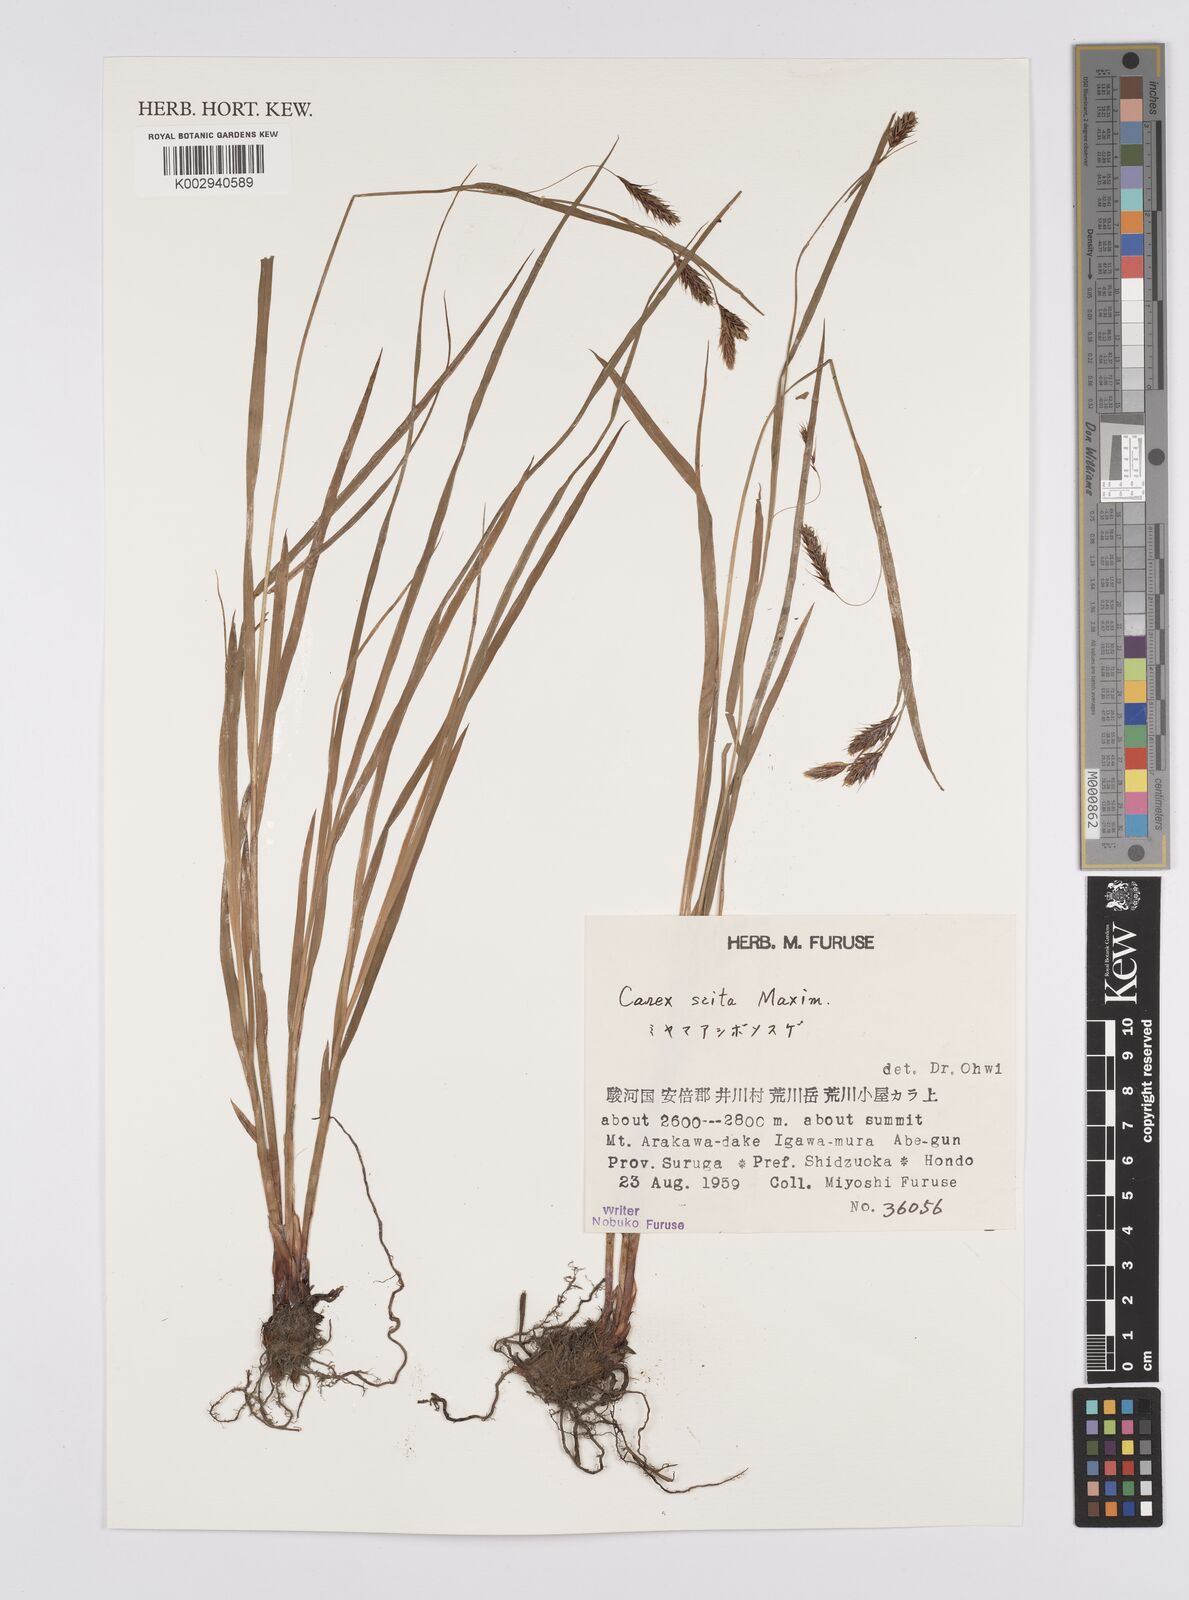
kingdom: Plantae
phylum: Tracheophyta
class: Liliopsida
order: Poales
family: Cyperaceae
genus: Carex
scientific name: Carex scita
